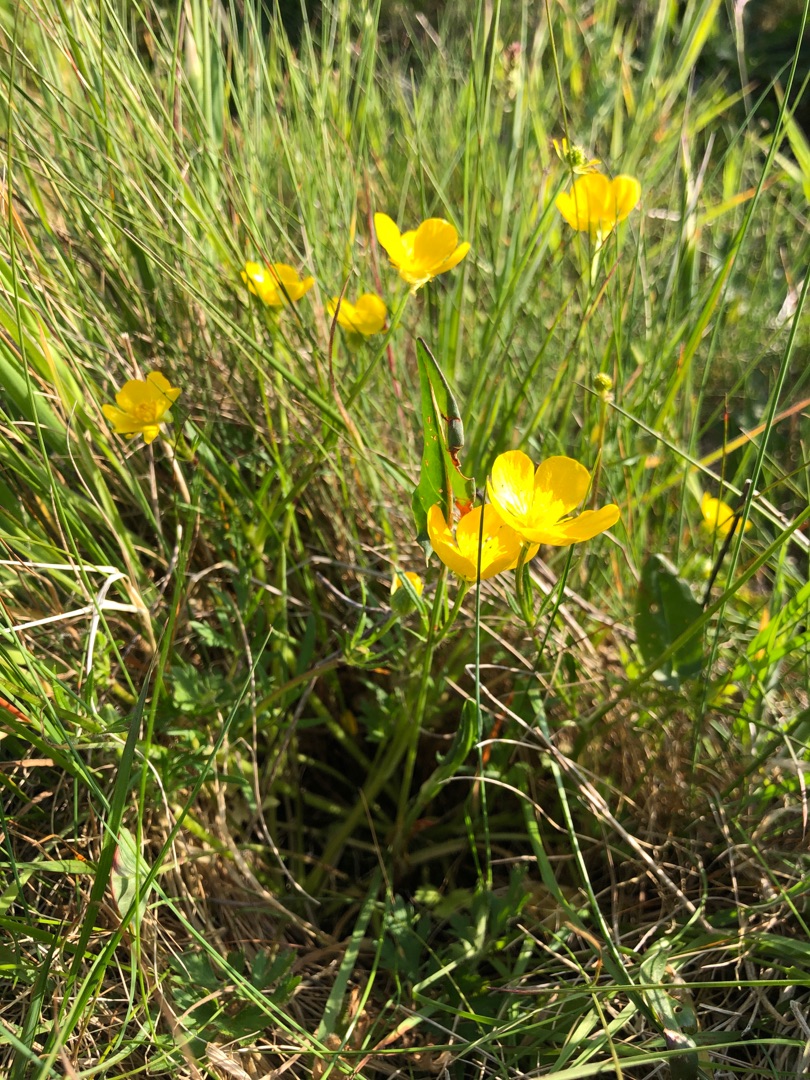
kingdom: Plantae
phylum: Tracheophyta
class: Magnoliopsida
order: Ranunculales
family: Ranunculaceae
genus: Ranunculus
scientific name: Ranunculus bulbosus
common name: Knold-ranunkel
